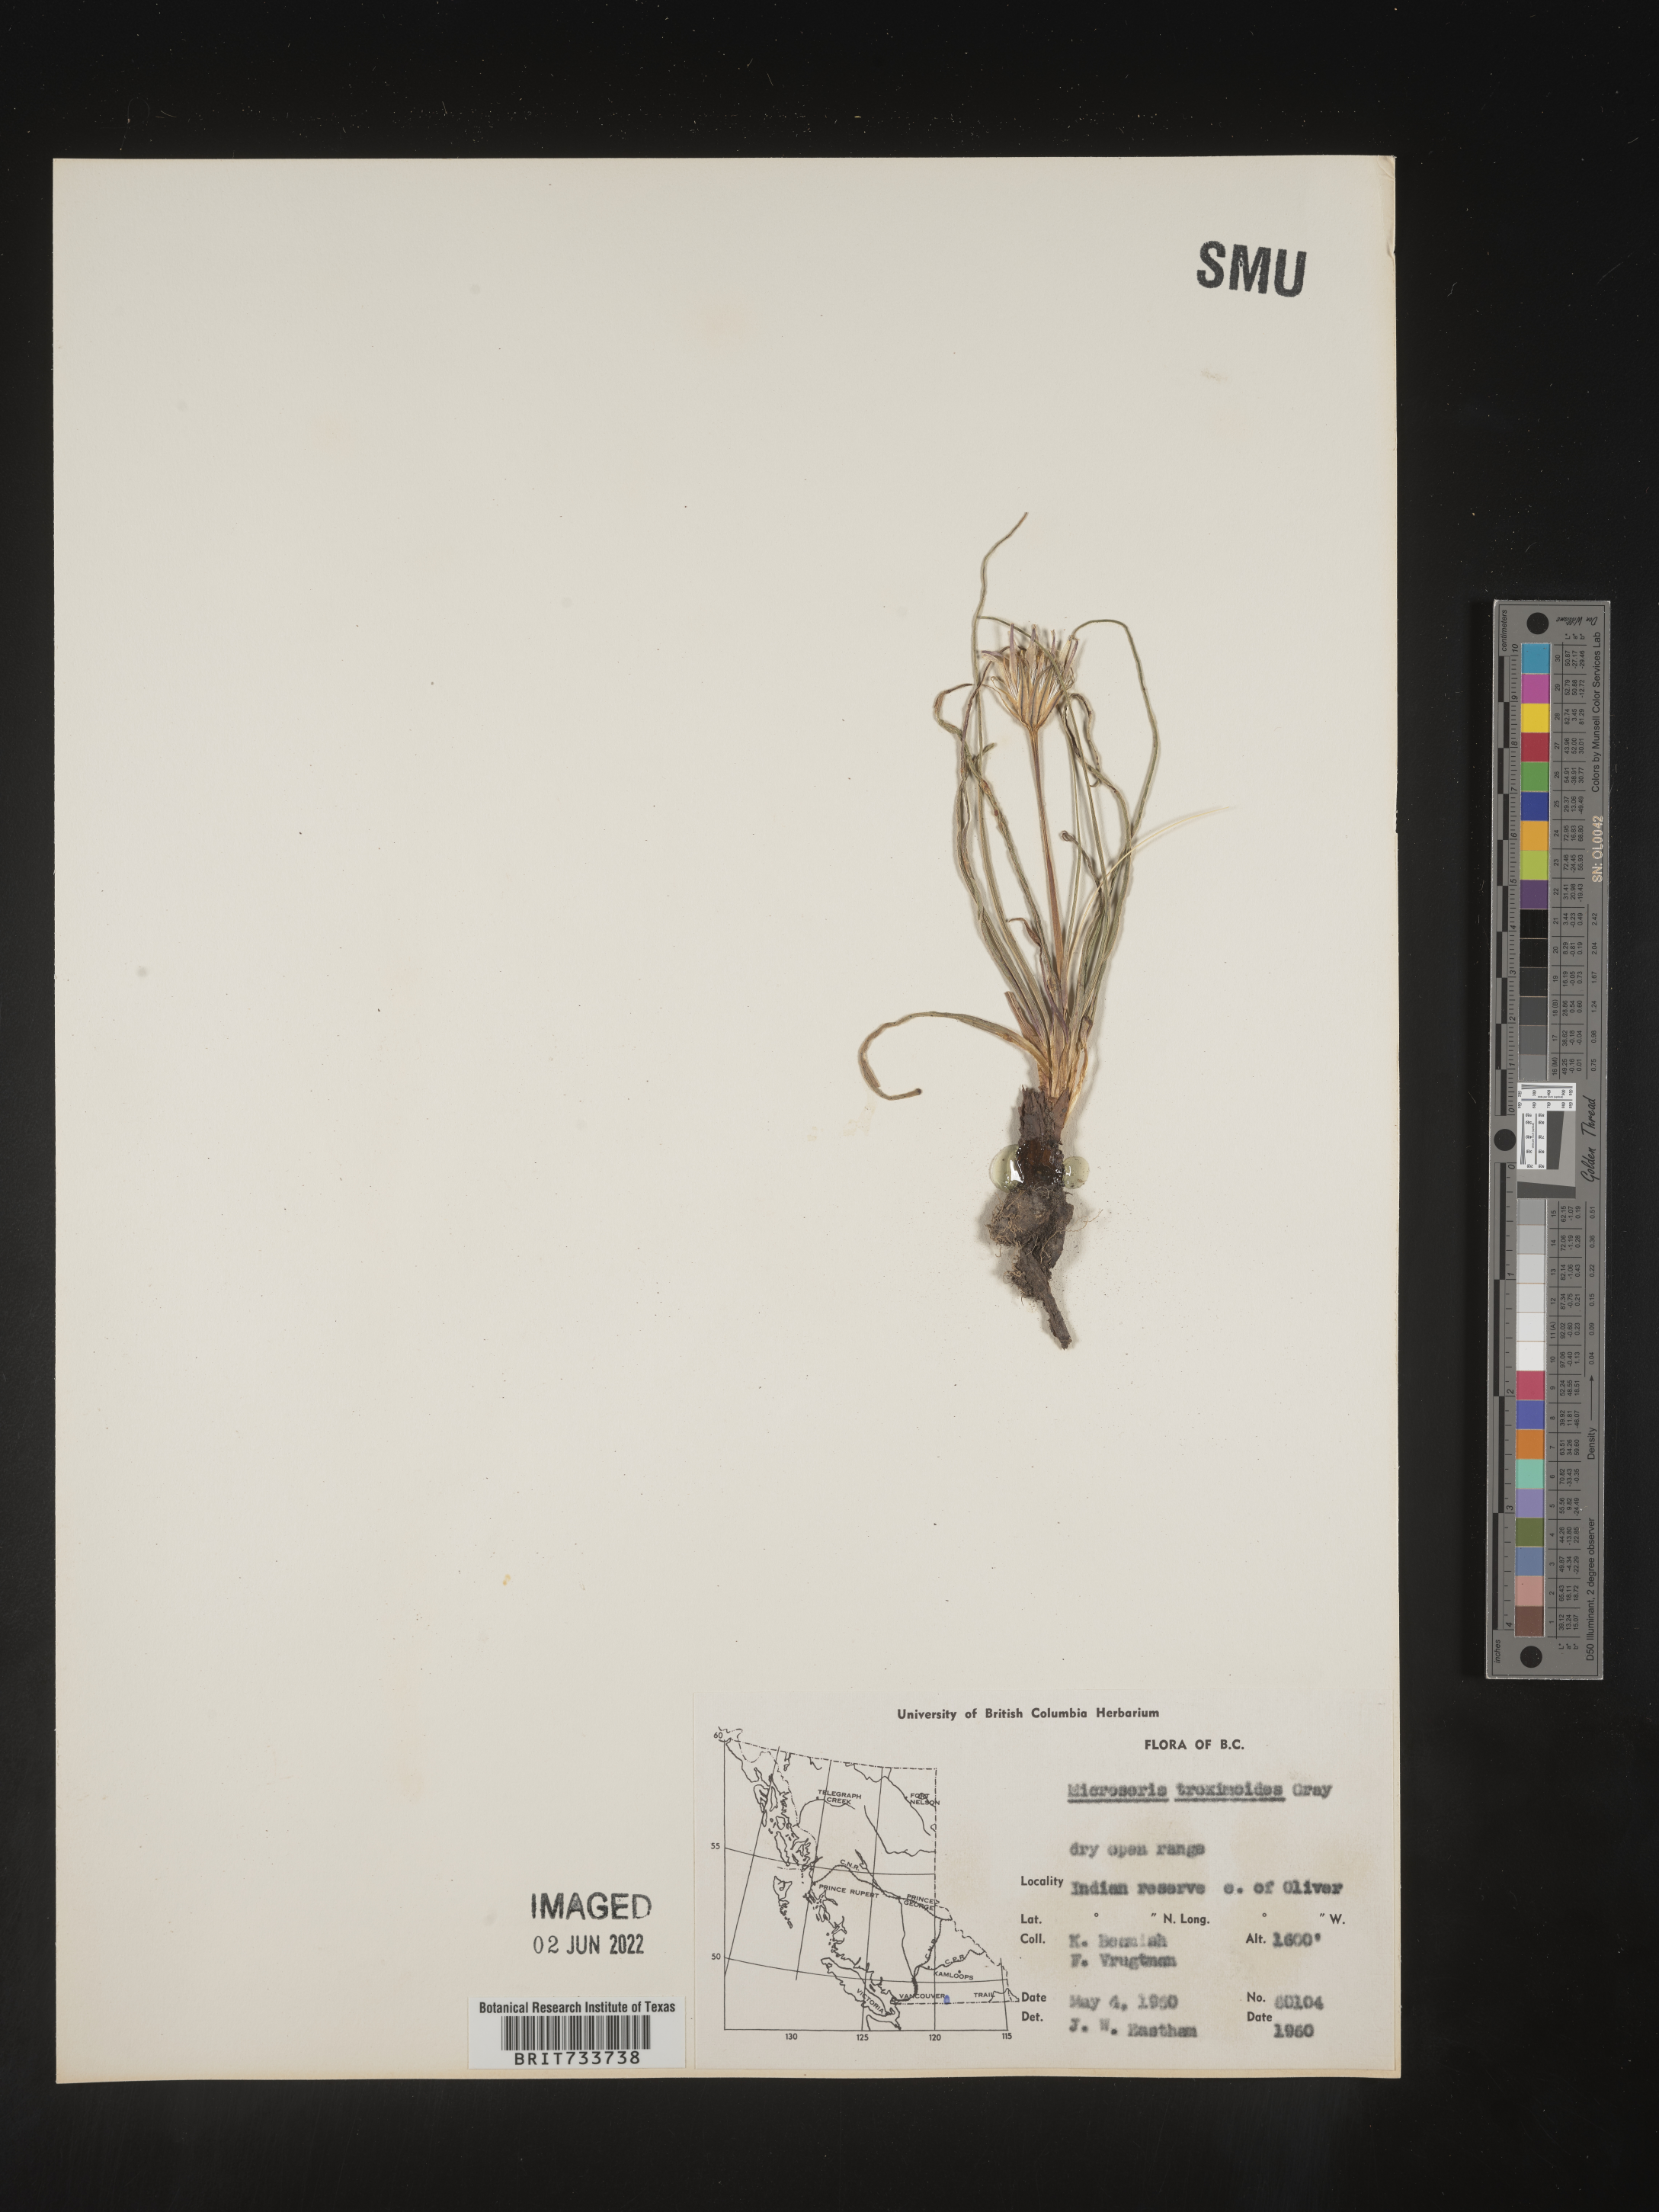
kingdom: Plantae
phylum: Tracheophyta
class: Magnoliopsida
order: Asterales
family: Asteraceae
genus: Microseris
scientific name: Microseris
